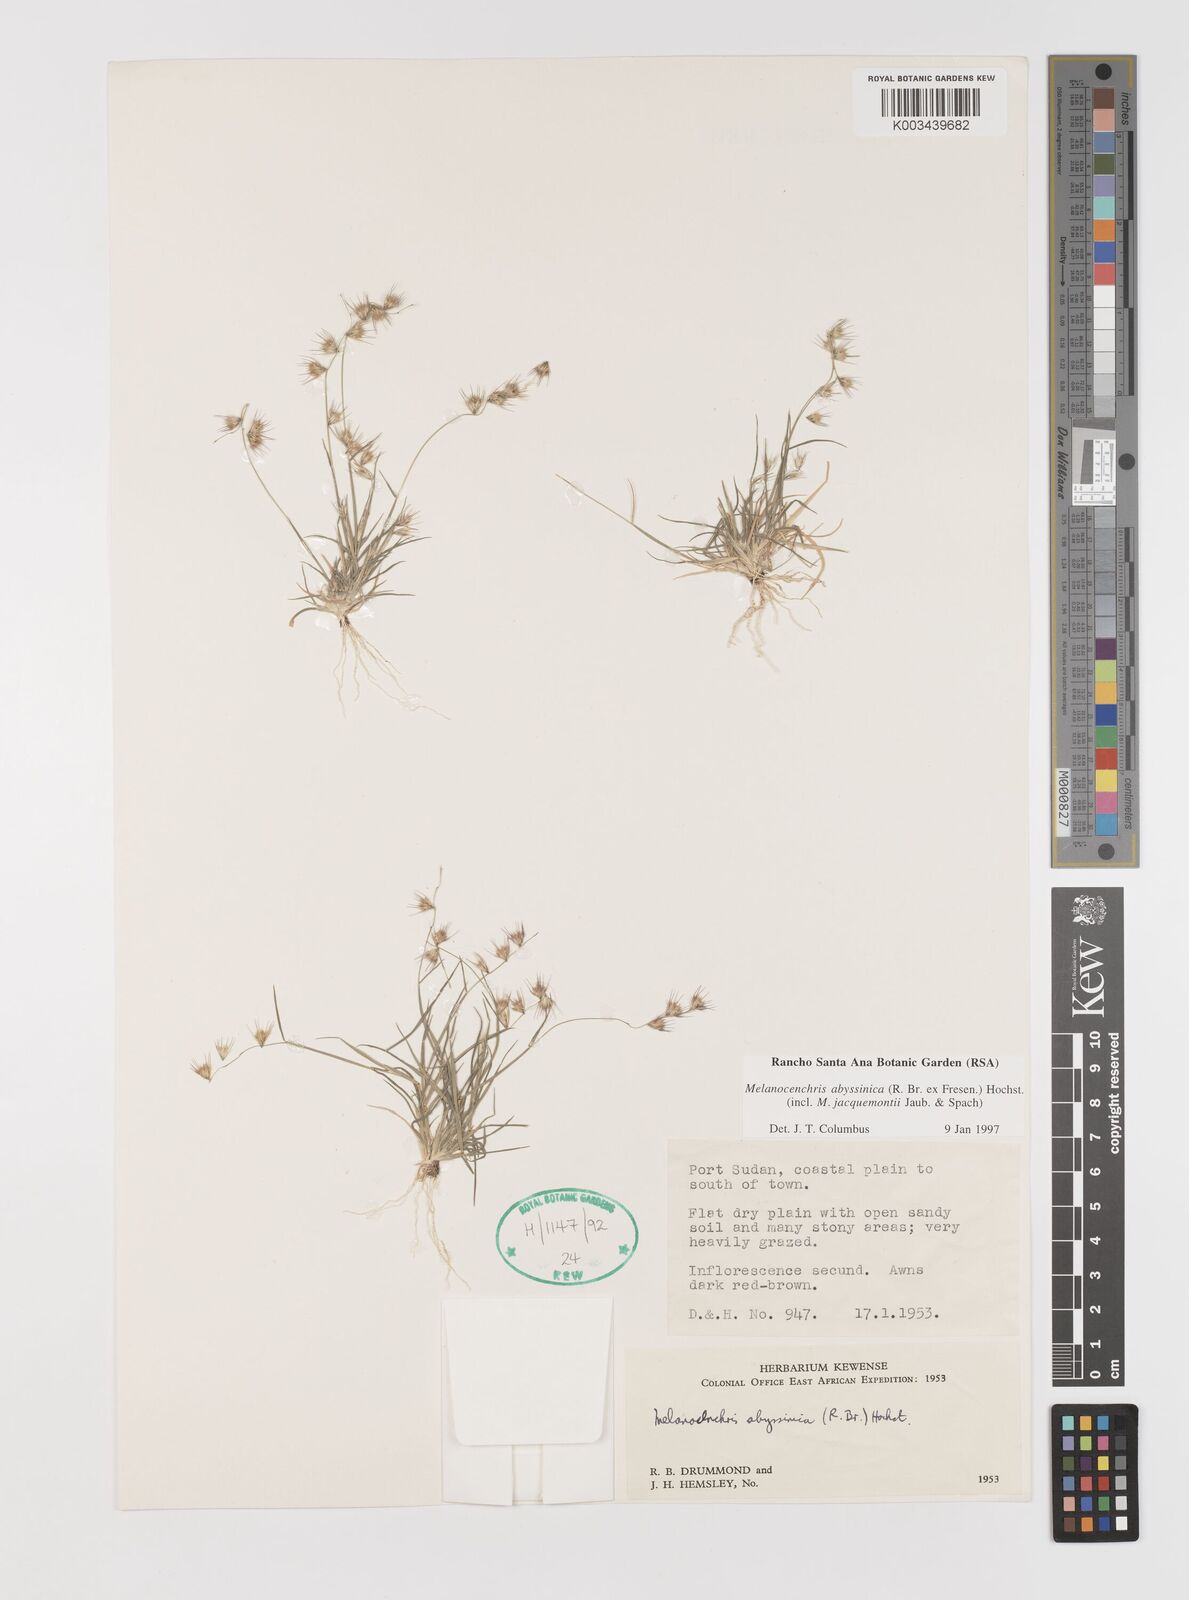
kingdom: Plantae
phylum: Tracheophyta
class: Liliopsida
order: Poales
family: Poaceae
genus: Melanocenchris
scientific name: Melanocenchris abyssinica
